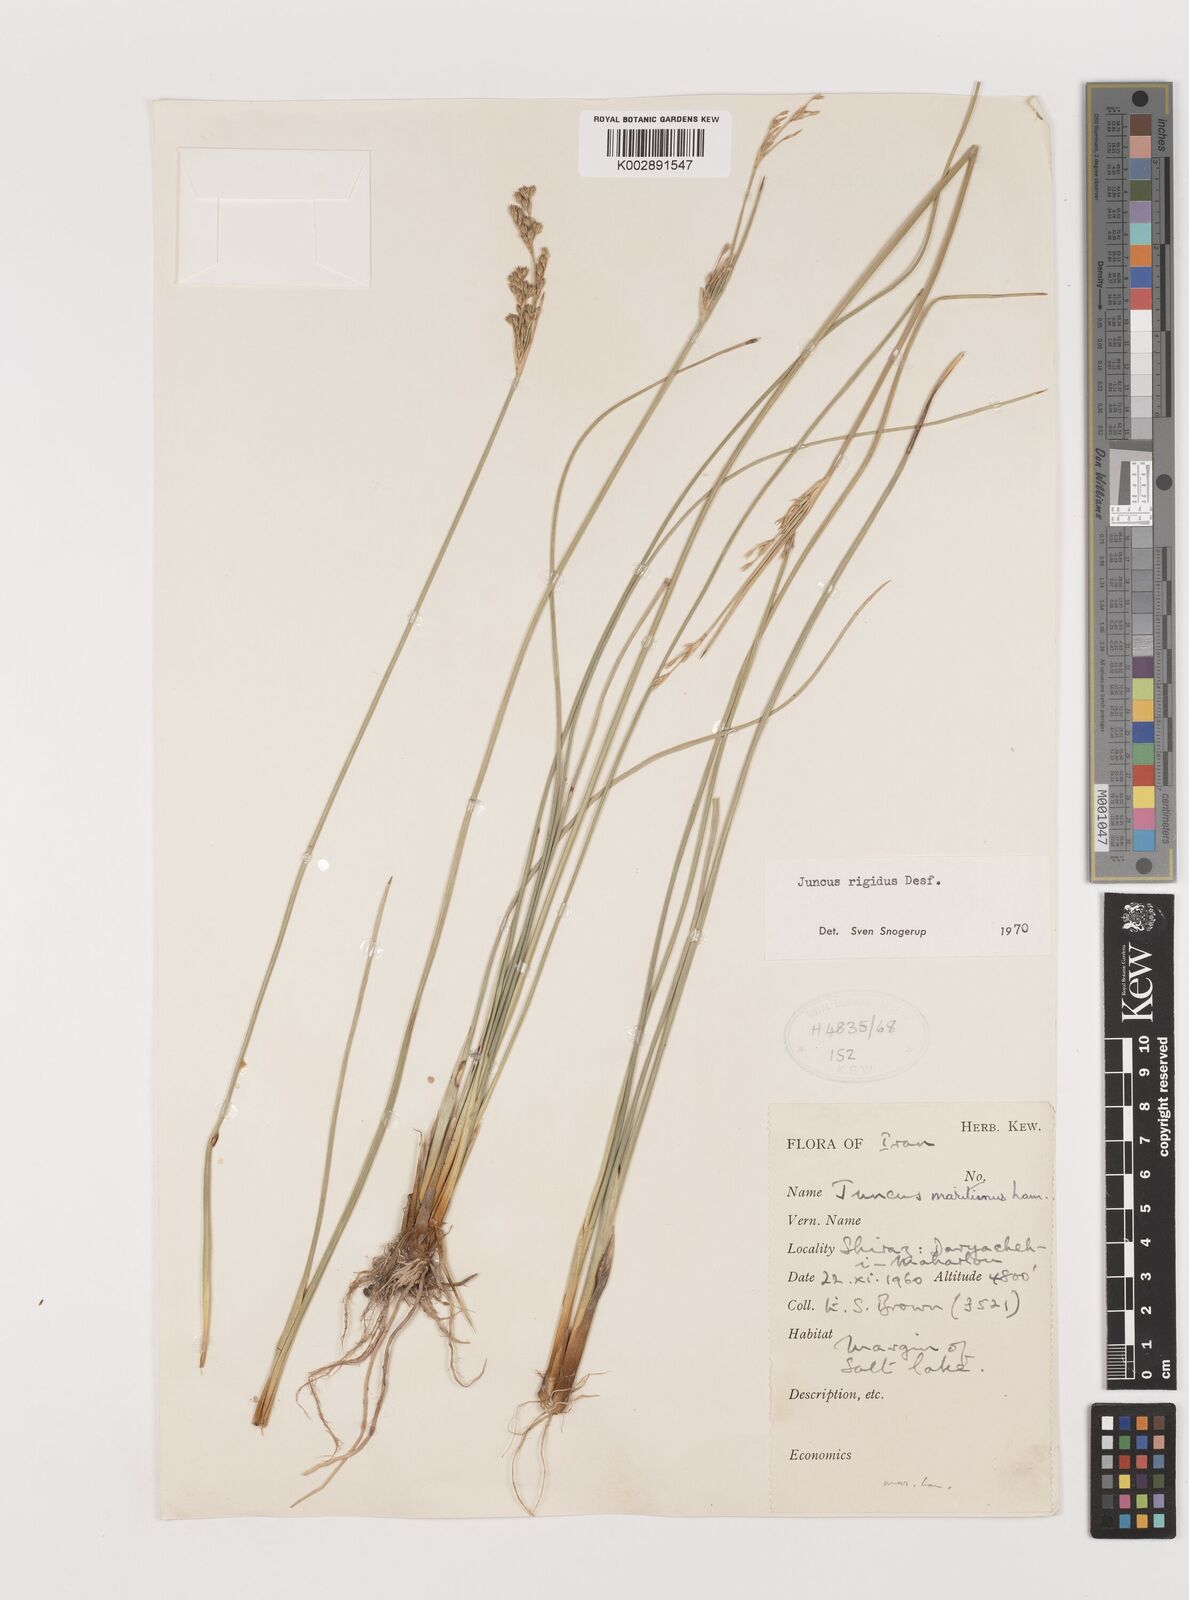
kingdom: Plantae
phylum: Tracheophyta
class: Liliopsida
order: Poales
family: Juncaceae
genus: Juncus
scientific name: Juncus rigidus
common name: Hard sea rush
